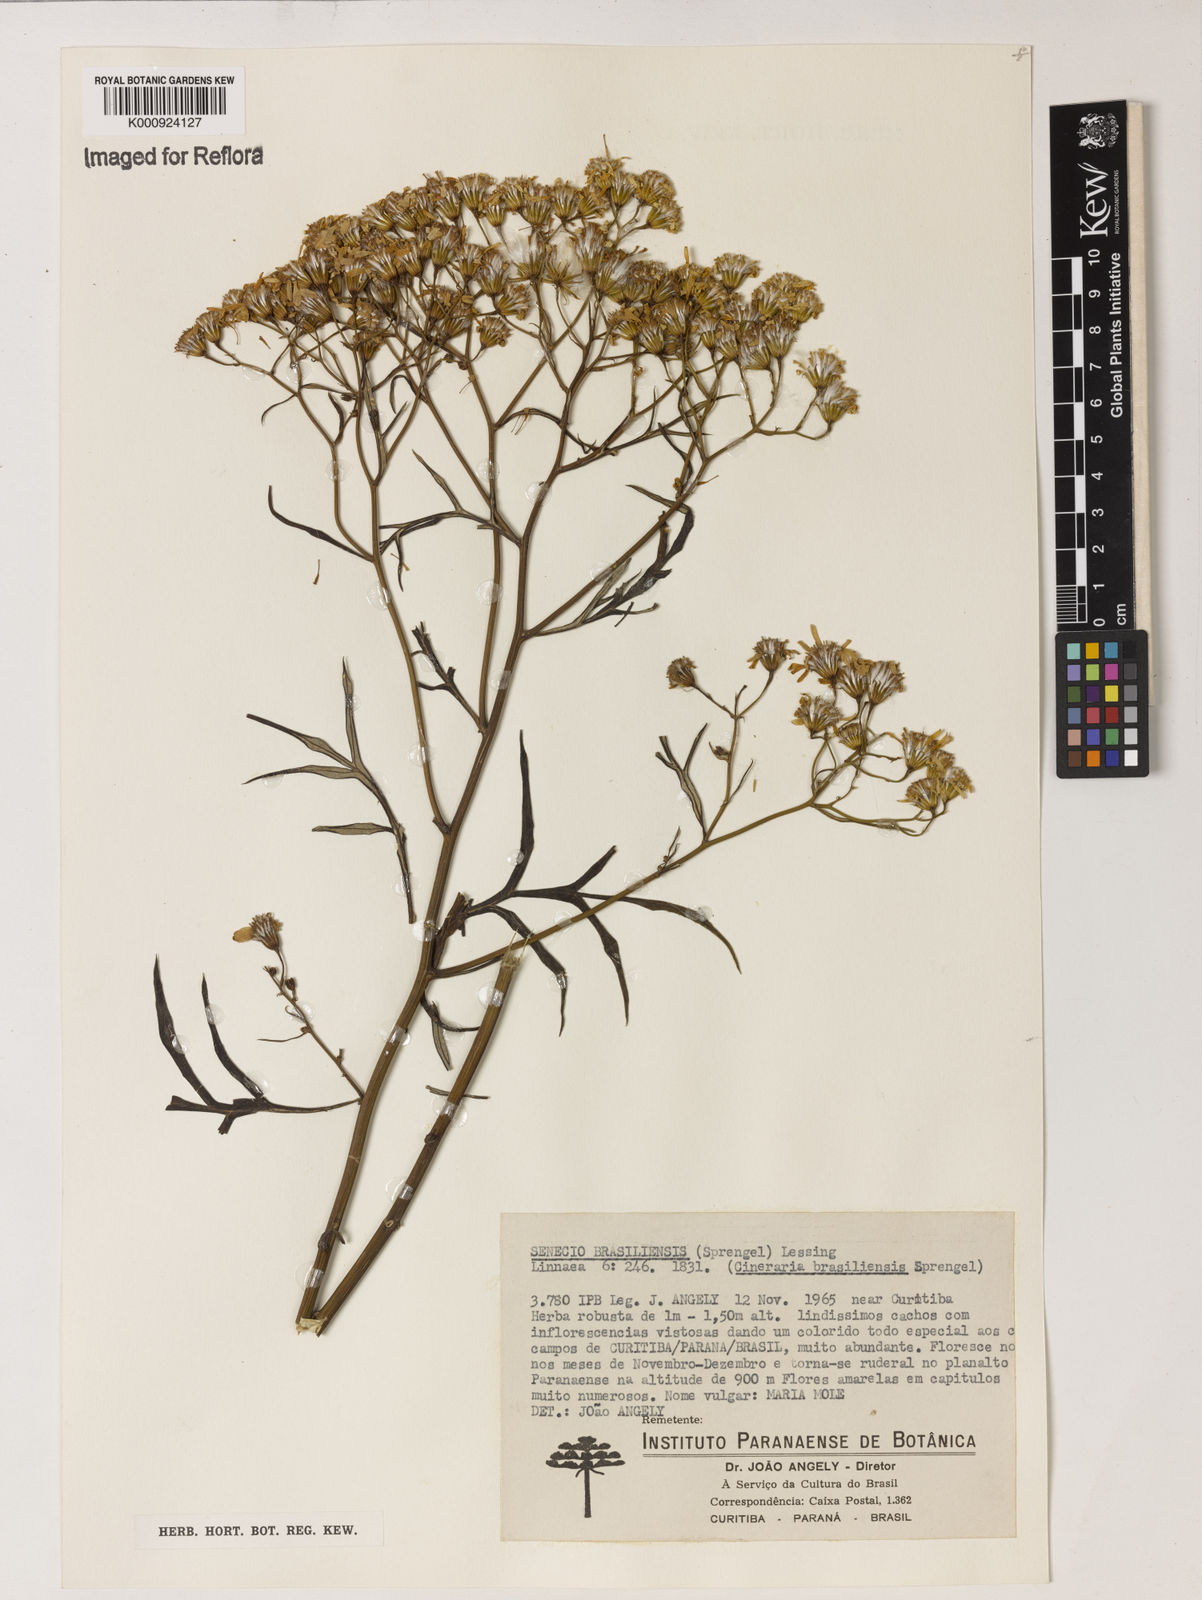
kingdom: Plantae
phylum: Tracheophyta
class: Magnoliopsida
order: Asterales
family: Asteraceae
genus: Senecio
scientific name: Senecio brasiliensis
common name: Hemp-leaf ragwort
